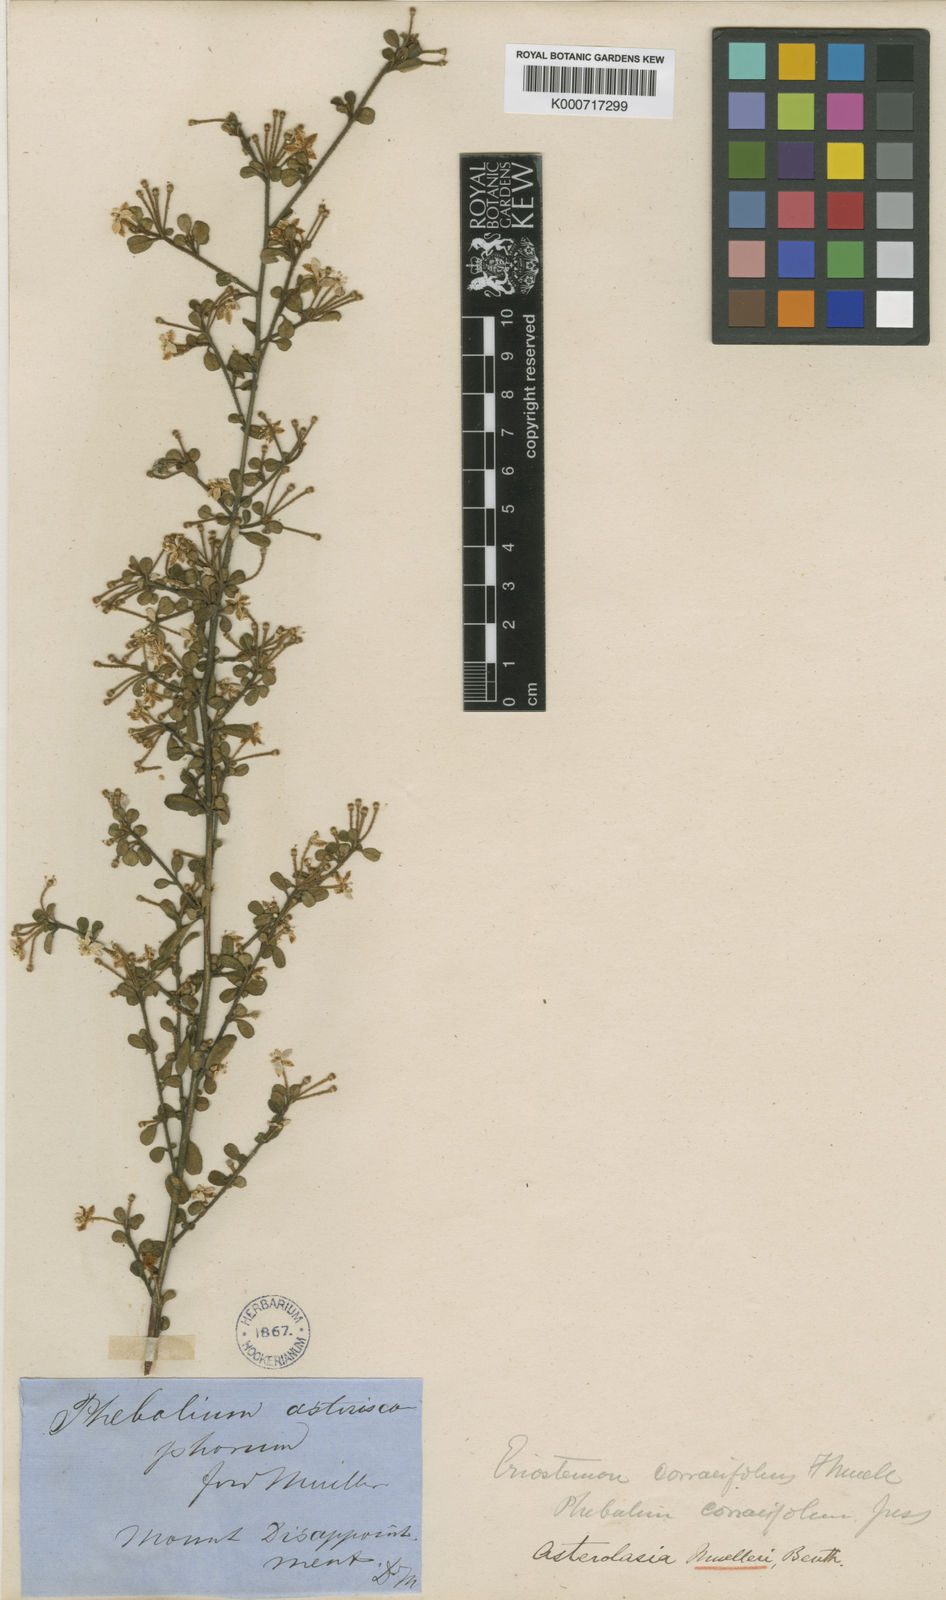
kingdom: Plantae
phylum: Tracheophyta
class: Magnoliopsida
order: Sapindales
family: Rutaceae
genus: Asterolasia
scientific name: Asterolasia asteriscophora
